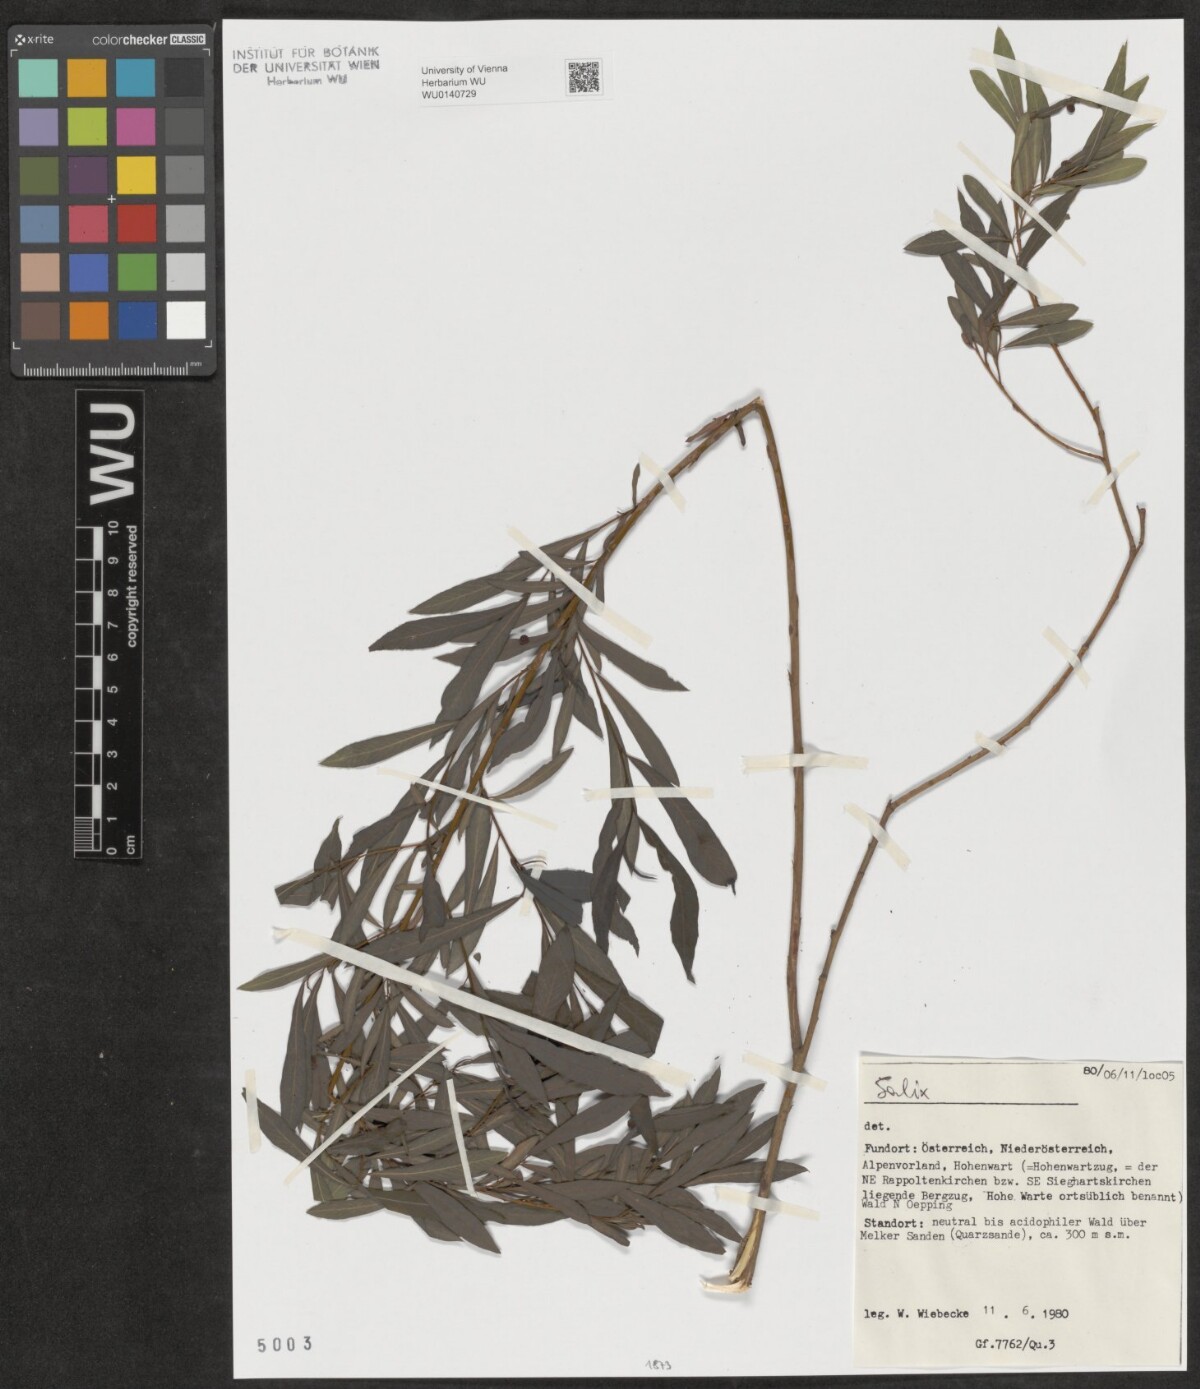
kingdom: Plantae
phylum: Tracheophyta
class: Magnoliopsida
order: Malpighiales
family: Salicaceae
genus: Salix
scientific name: Salix
